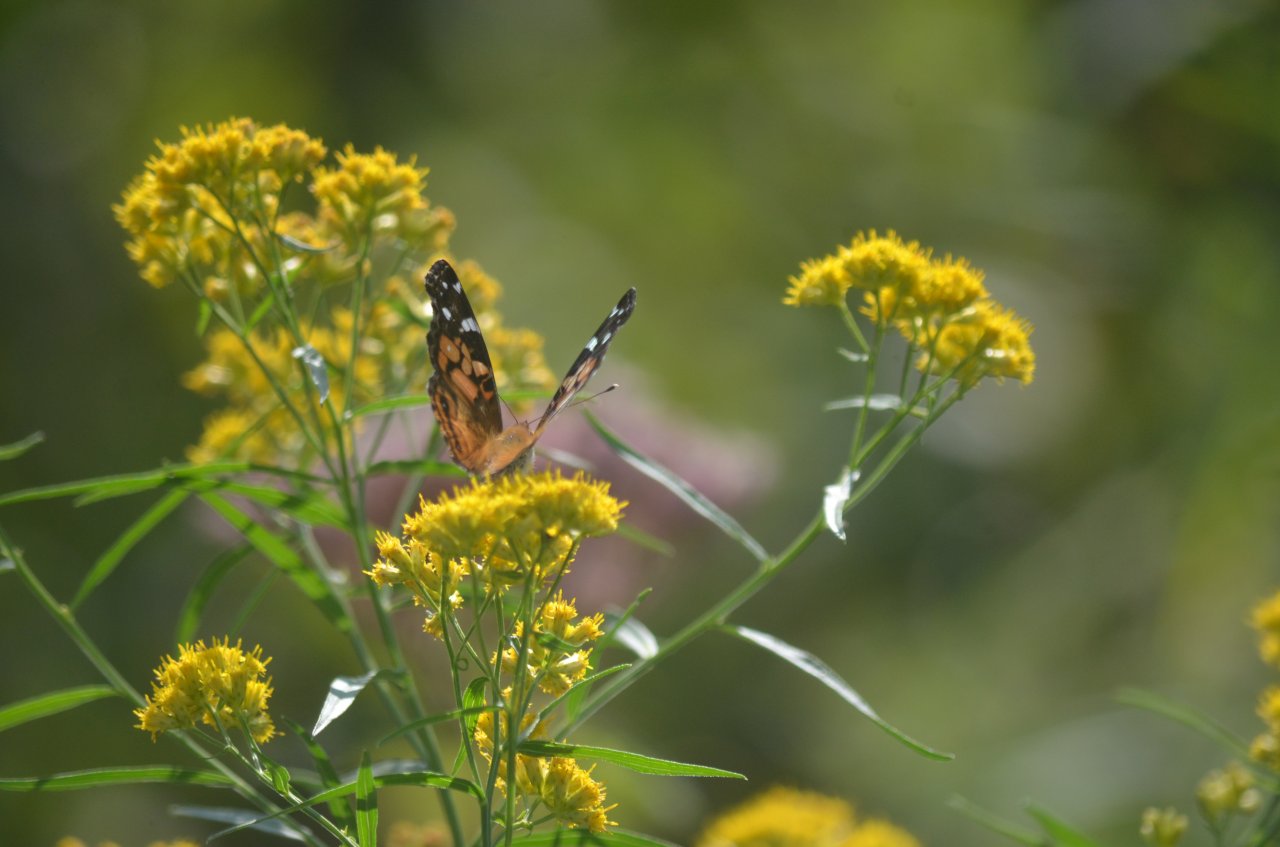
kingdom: Animalia
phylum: Arthropoda
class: Insecta
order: Lepidoptera
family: Nymphalidae
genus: Vanessa
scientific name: Vanessa virginiensis
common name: American Lady
